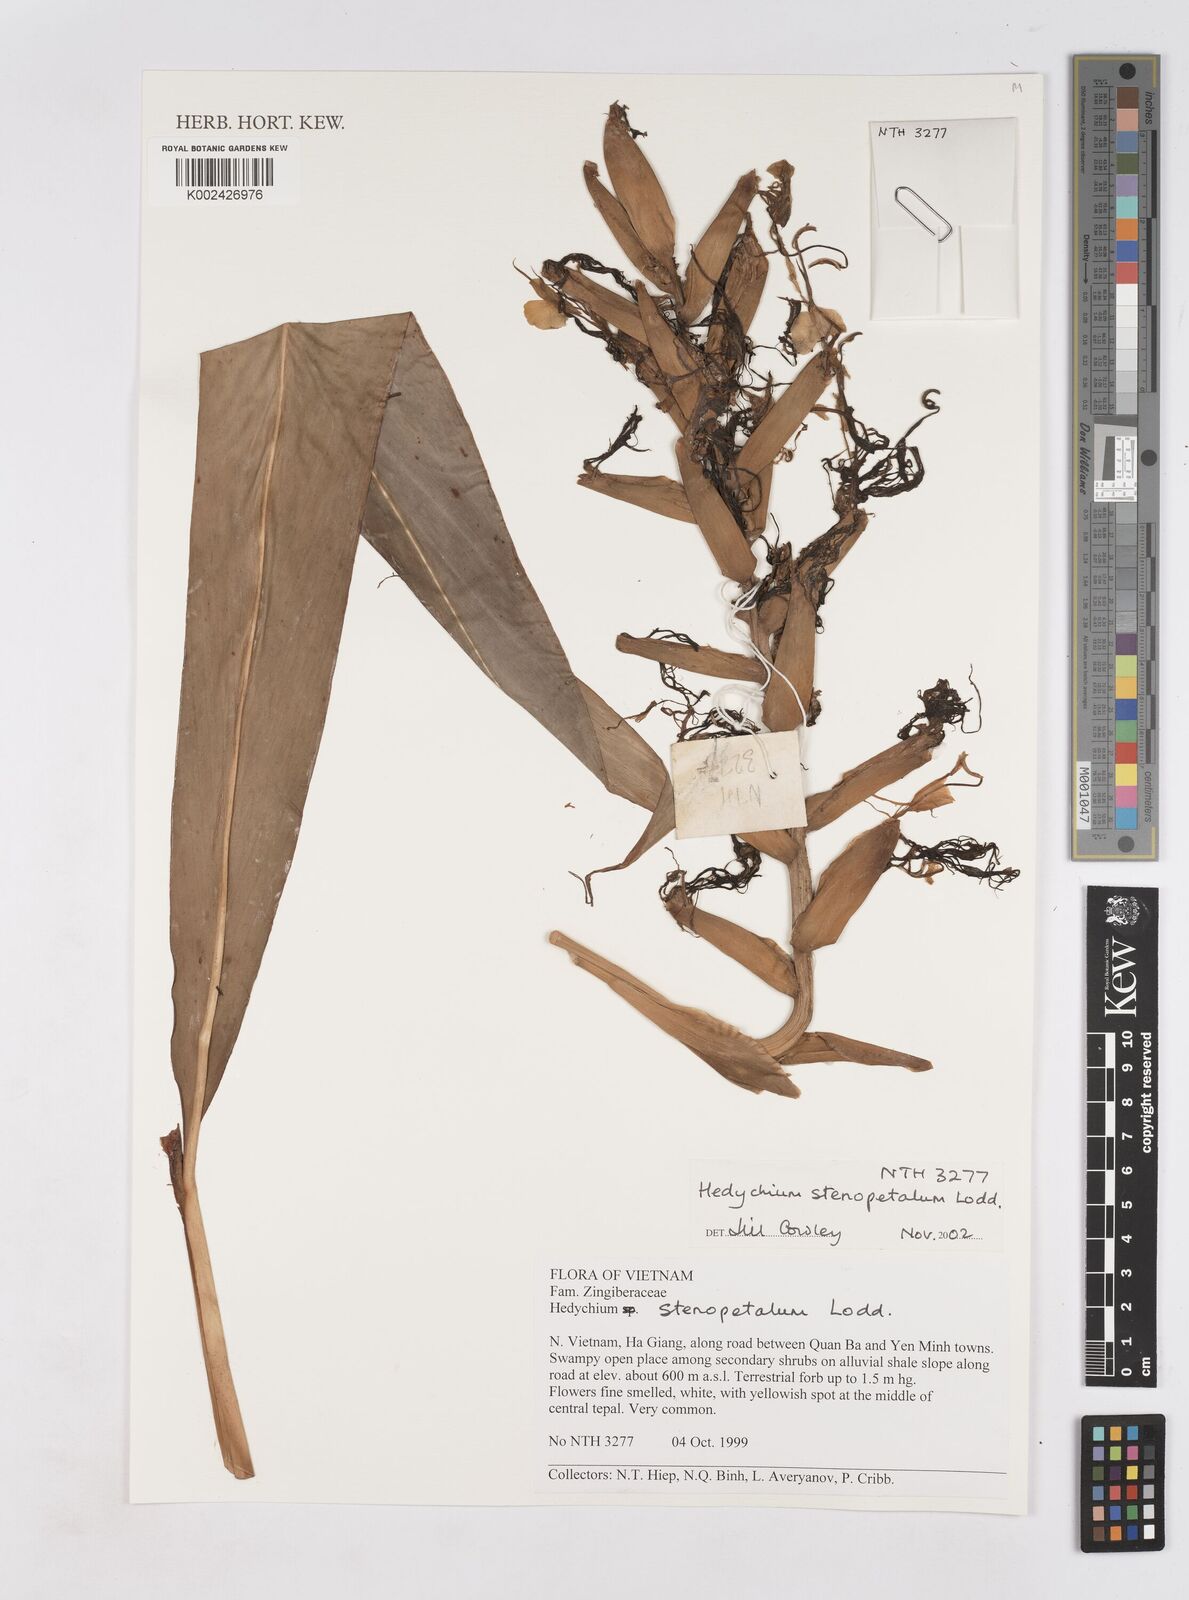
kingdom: Plantae
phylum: Tracheophyta
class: Liliopsida
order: Zingiberales
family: Zingiberaceae
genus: Hedychium
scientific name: Hedychium stenopetalum
